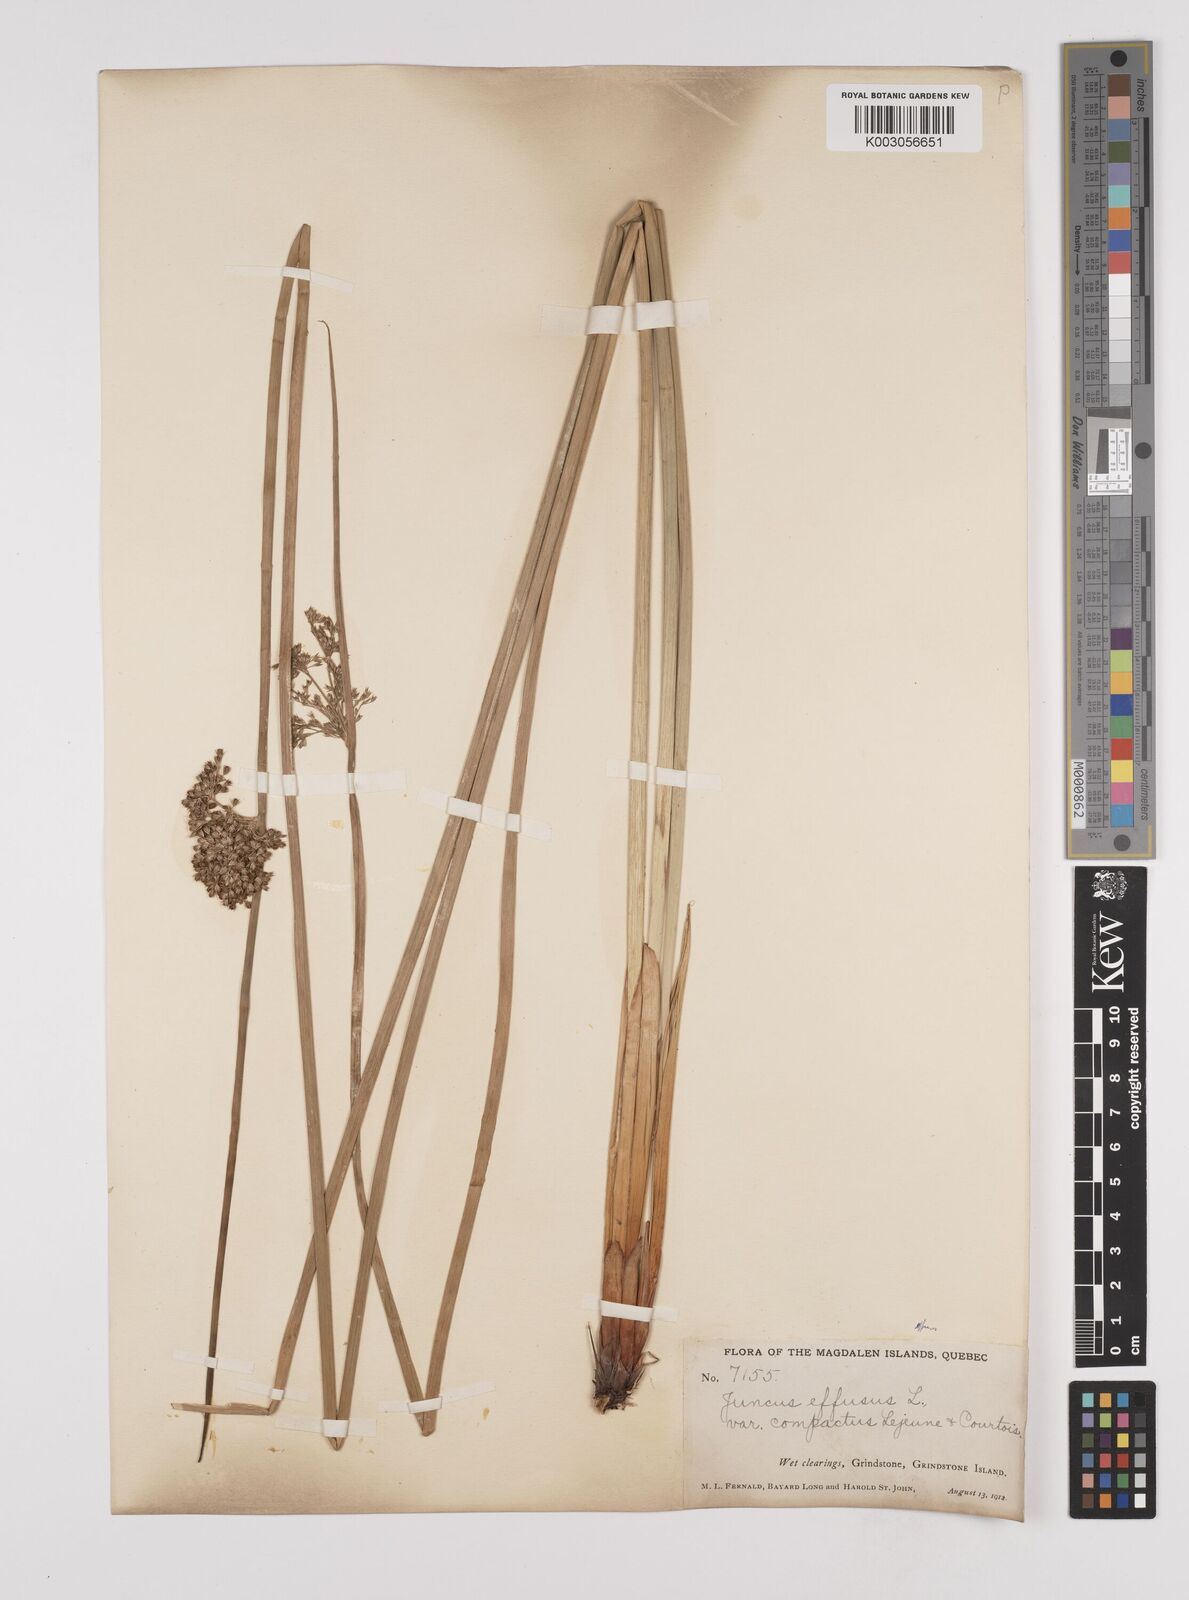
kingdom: Plantae
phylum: Tracheophyta
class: Liliopsida
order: Poales
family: Juncaceae
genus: Juncus
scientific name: Juncus effusus
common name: Soft rush
